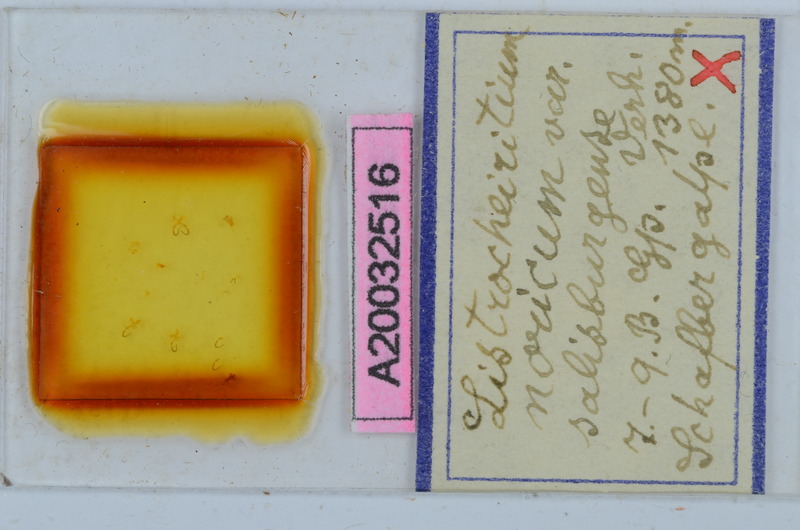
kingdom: Animalia
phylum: Arthropoda
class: Diplopoda
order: Chordeumatida
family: Craspedosomatidae
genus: Listrocheiritium
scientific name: Listrocheiritium noricum
